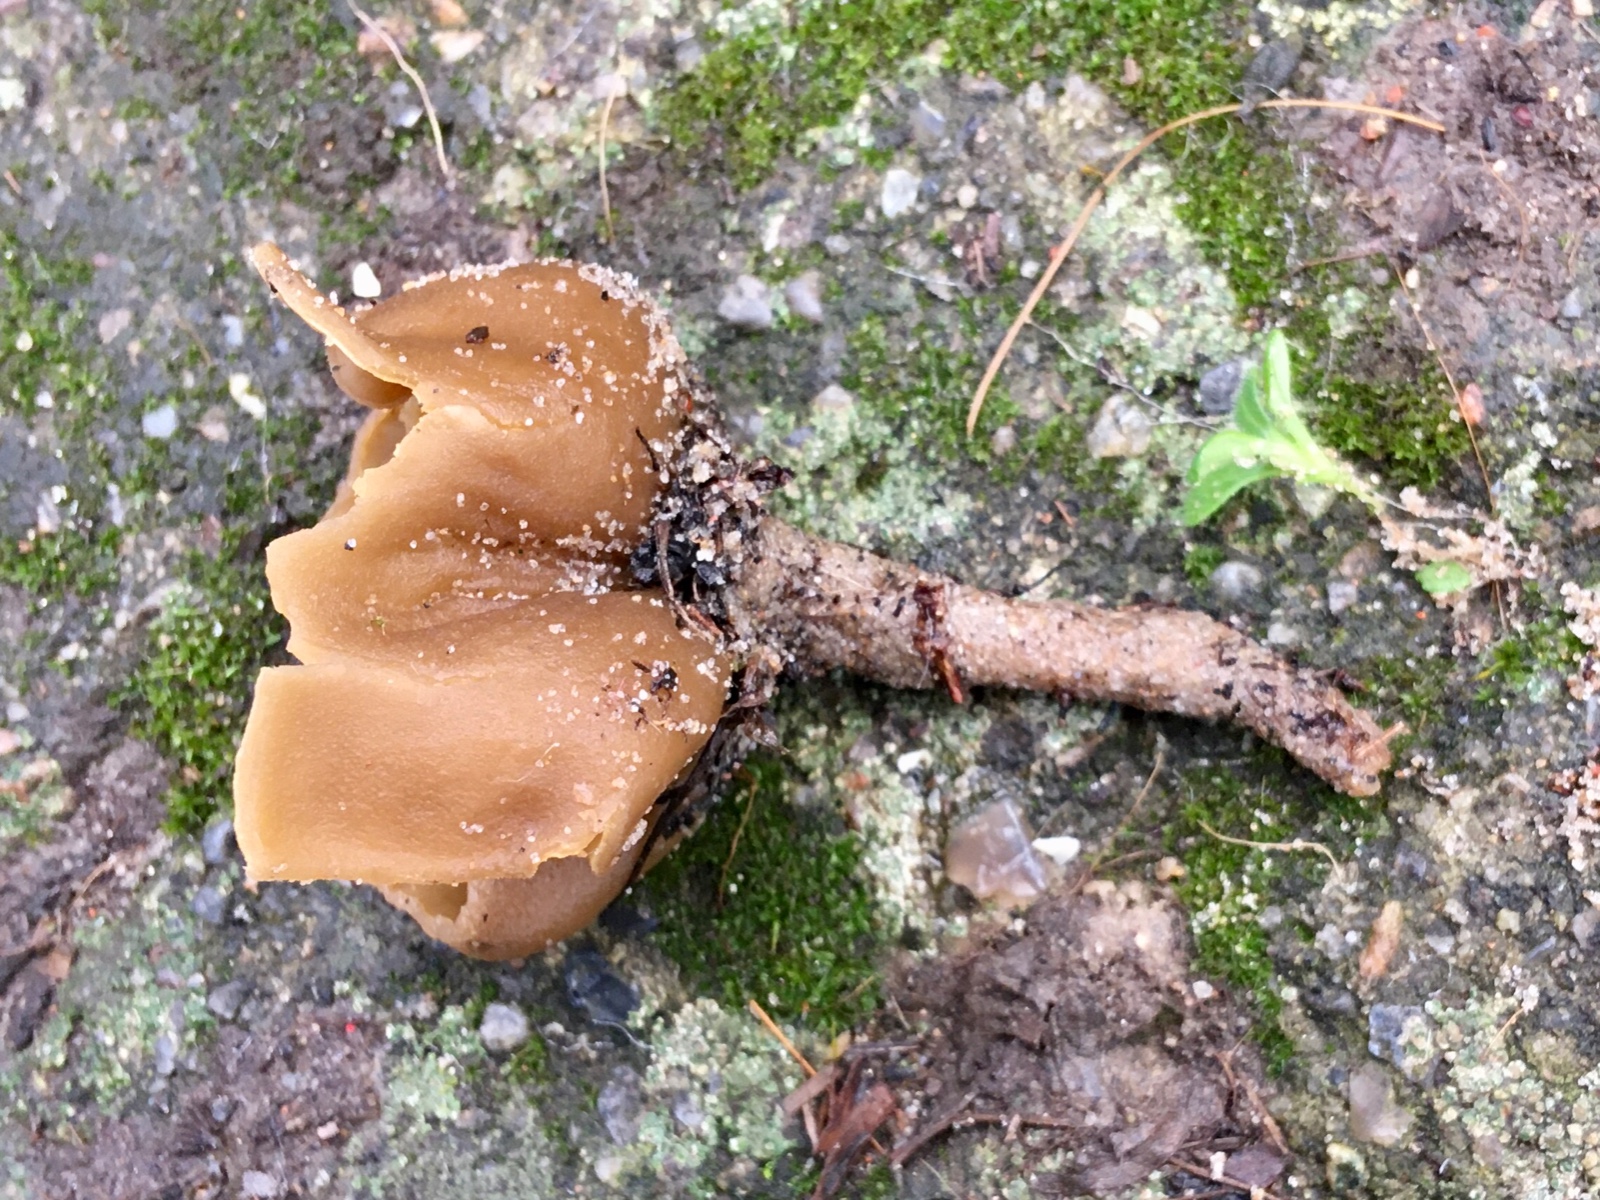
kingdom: Fungi
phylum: Ascomycota
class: Pezizomycetes
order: Pezizales
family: Pyronemataceae
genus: Sowerbyella
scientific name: Sowerbyella radiculata
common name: grøngul rodbæger
